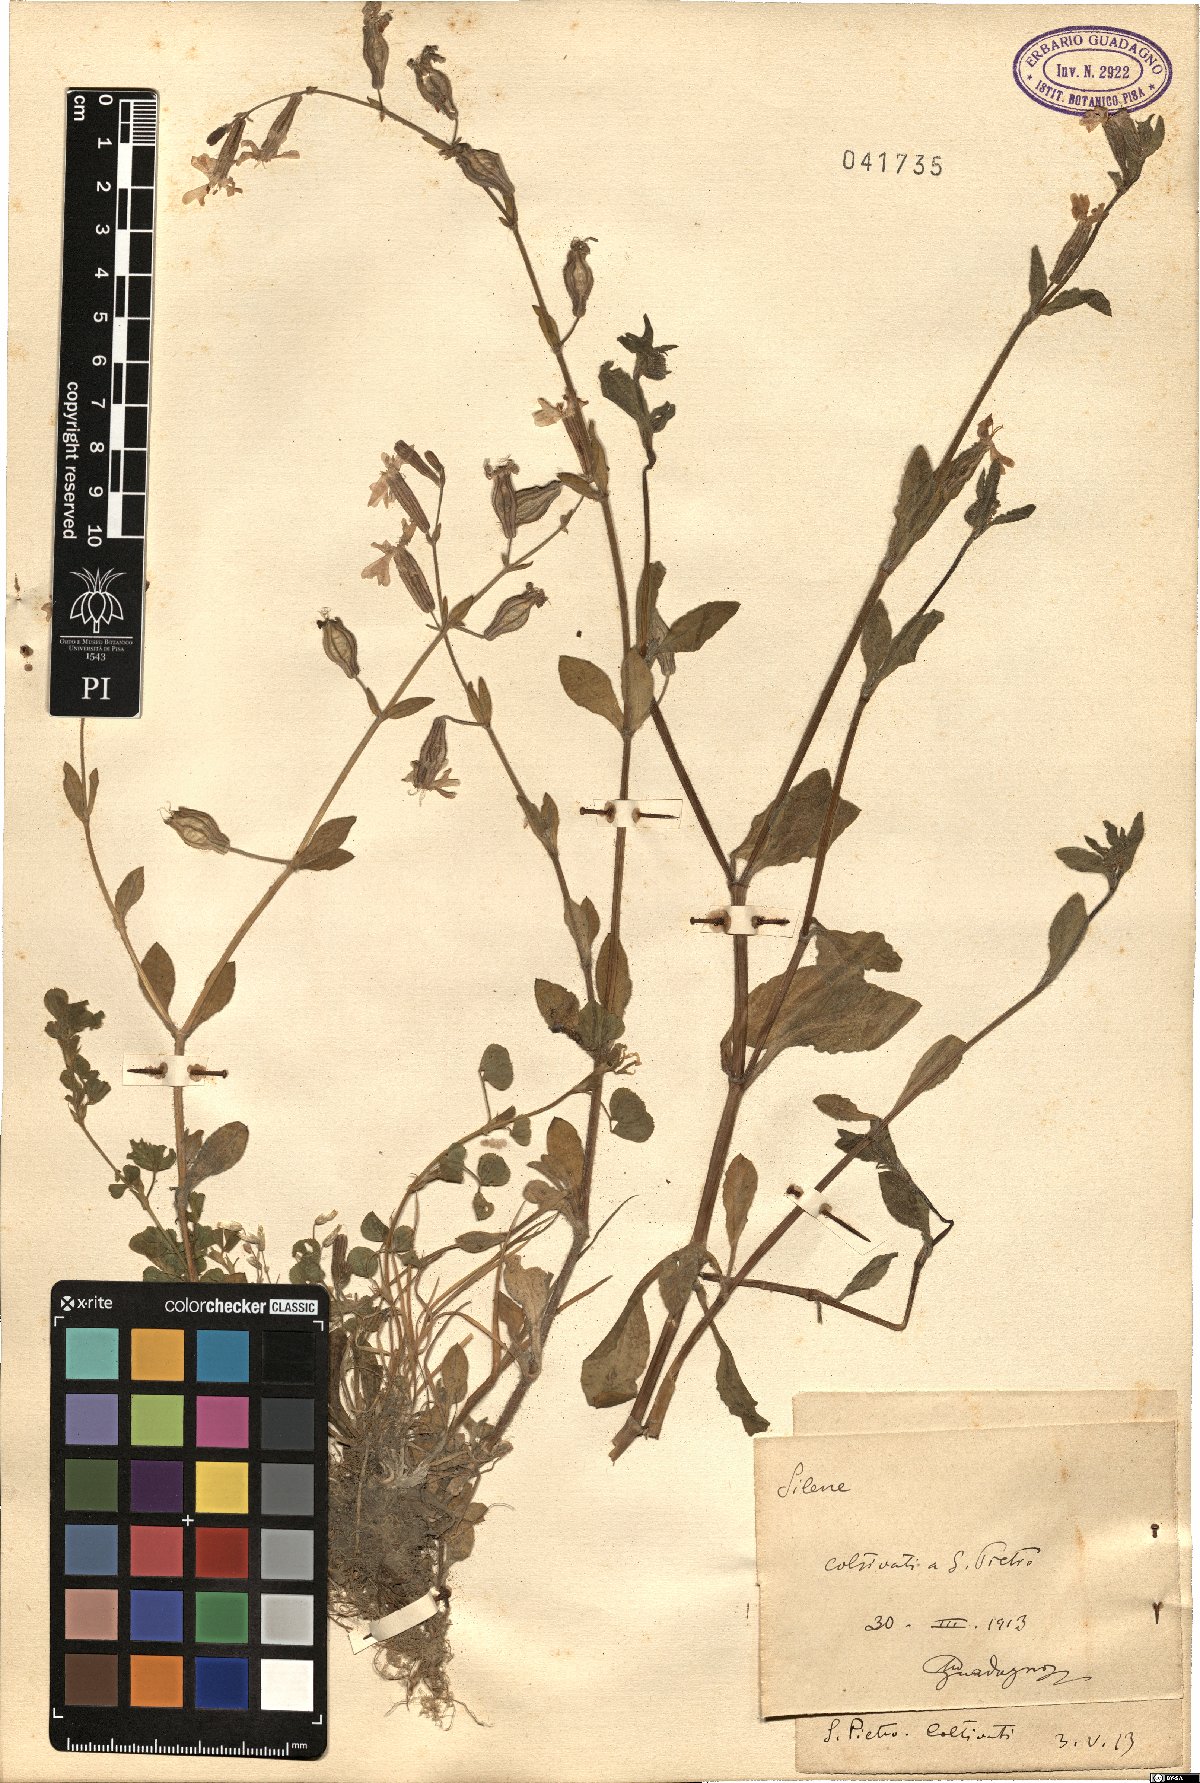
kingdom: Plantae
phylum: Tracheophyta
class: Magnoliopsida
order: Caryophyllales
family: Caryophyllaceae
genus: Silene
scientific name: Silene
